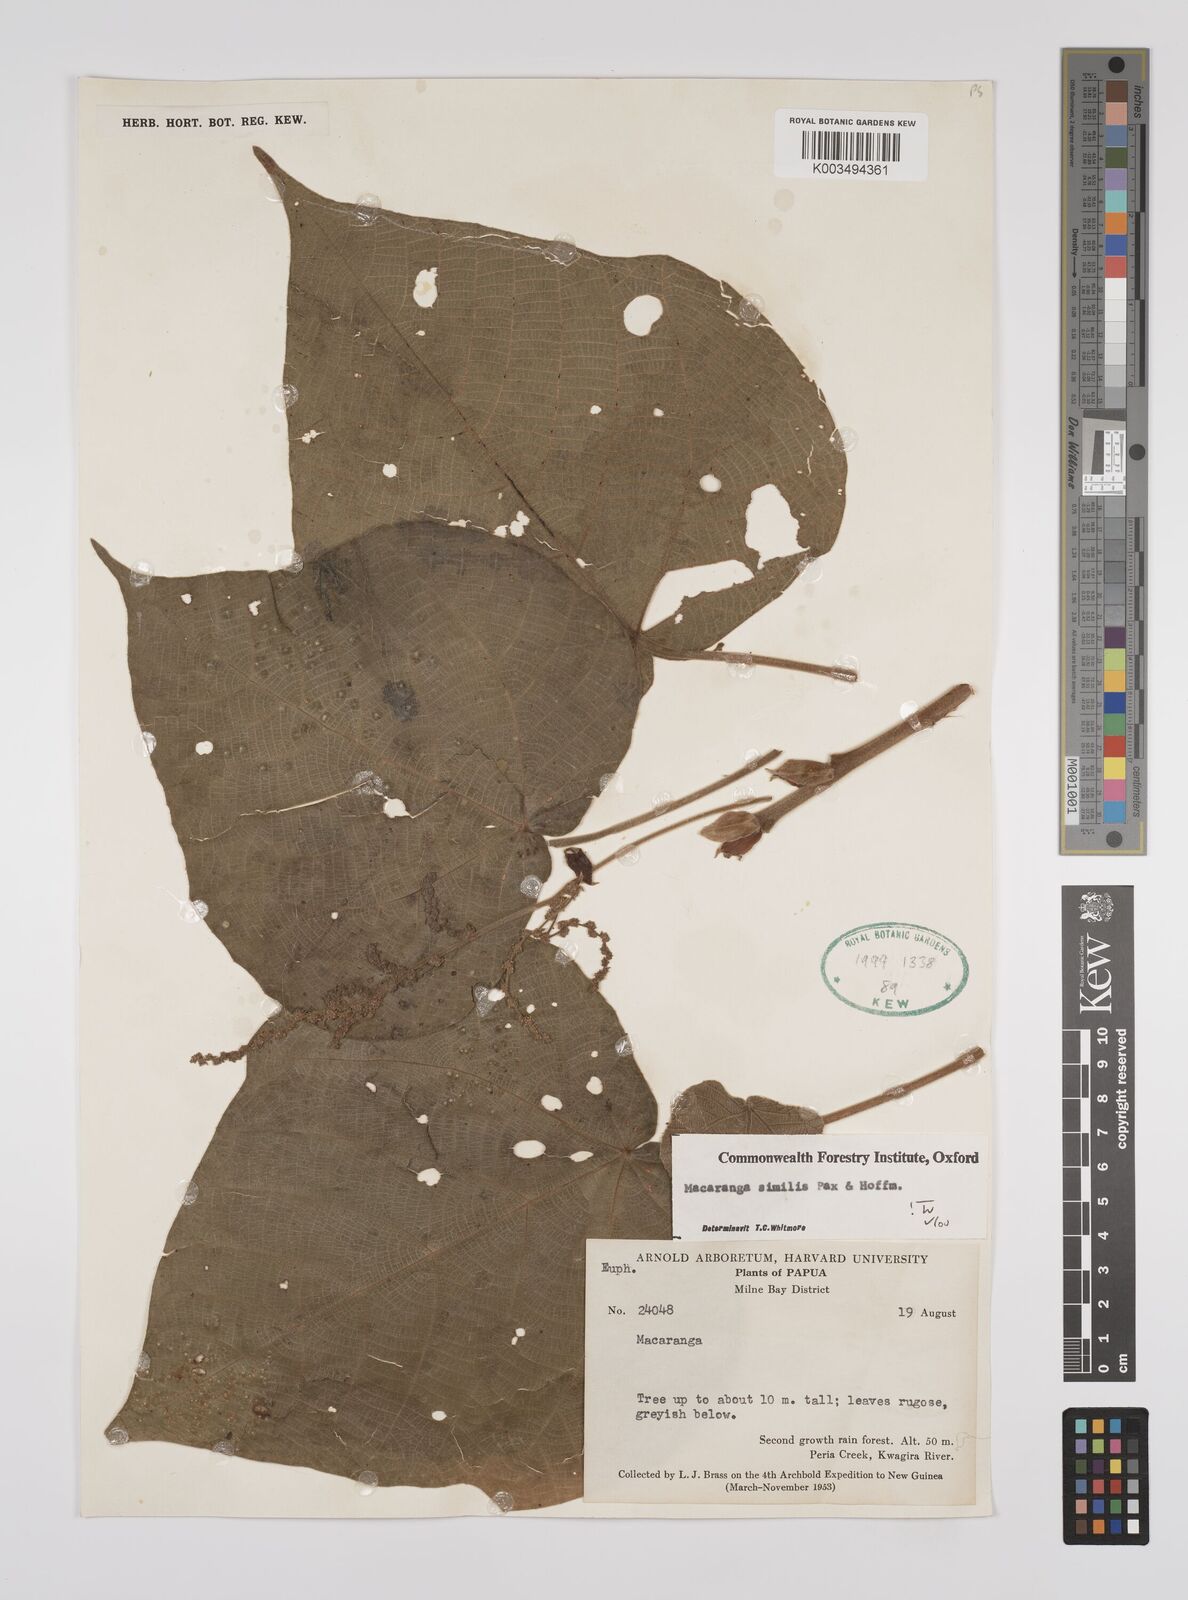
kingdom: Plantae
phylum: Tracheophyta
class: Magnoliopsida
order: Malpighiales
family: Euphorbiaceae
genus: Macaranga
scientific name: Macaranga similis
